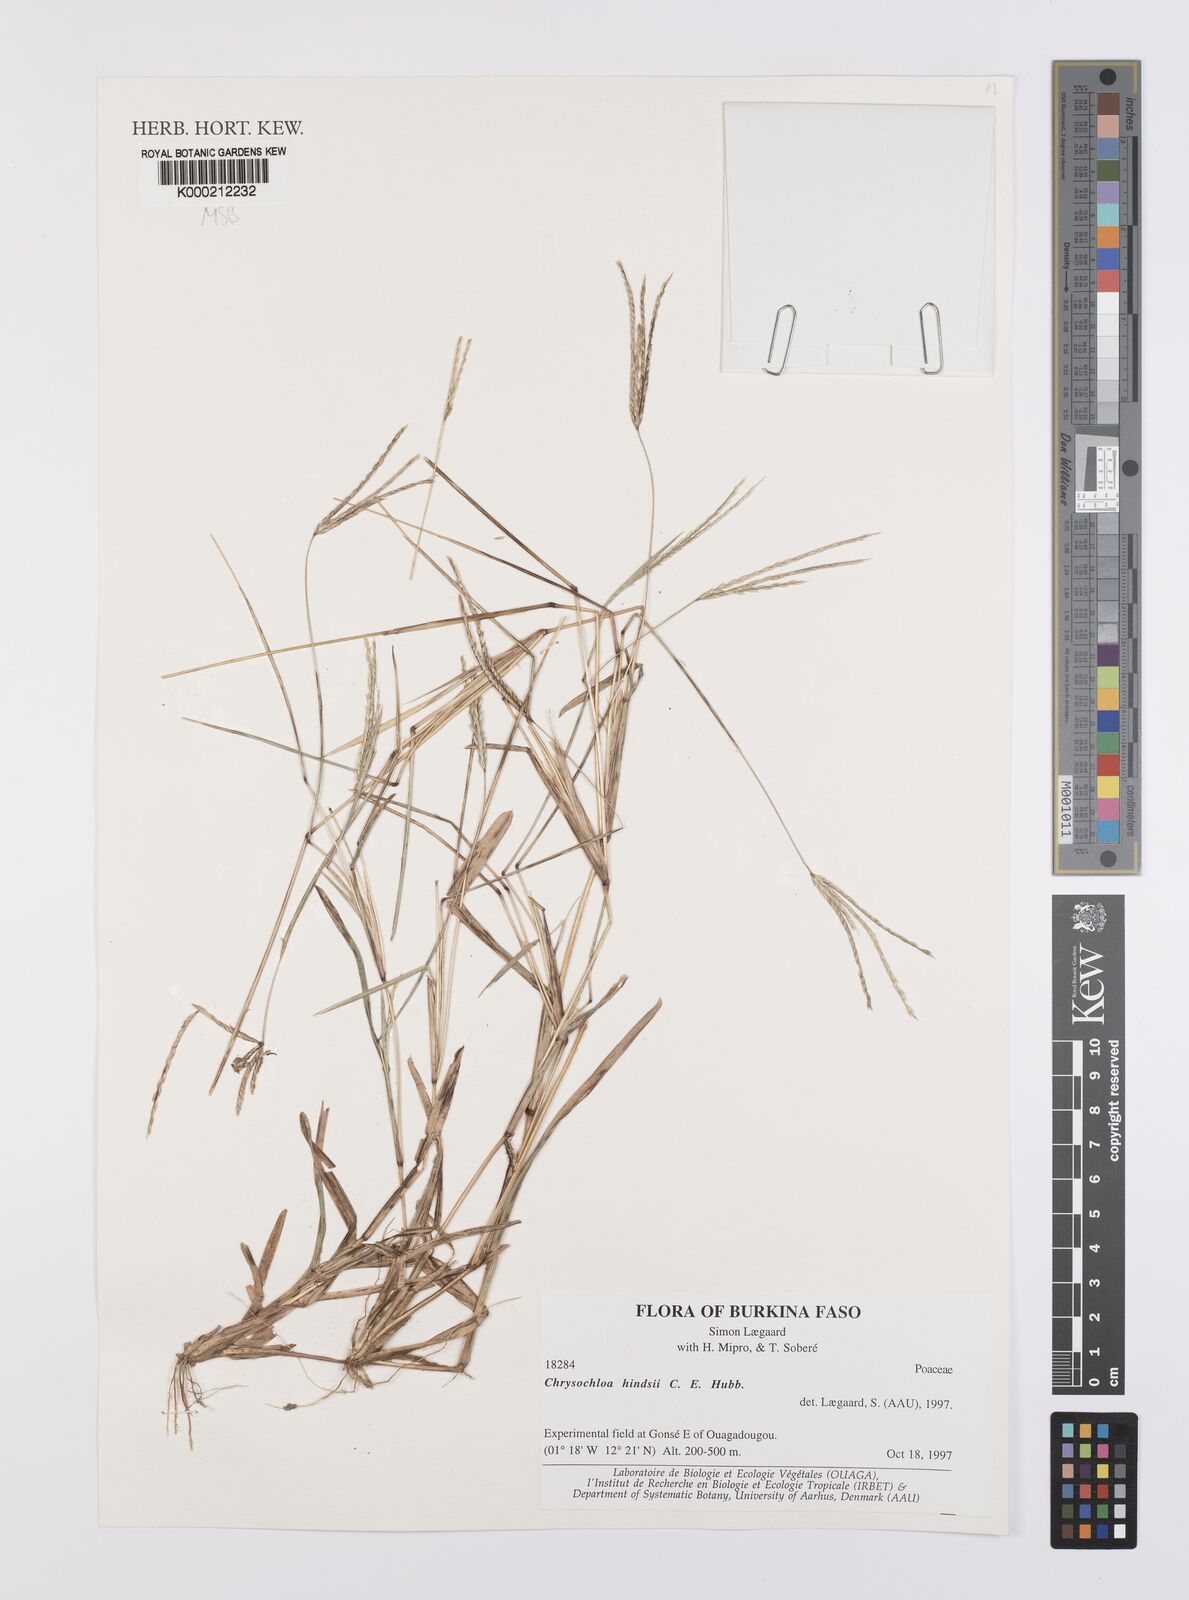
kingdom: Plantae
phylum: Tracheophyta
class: Liliopsida
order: Poales
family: Poaceae
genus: Chrysochloa
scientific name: Chrysochloa hindsii
